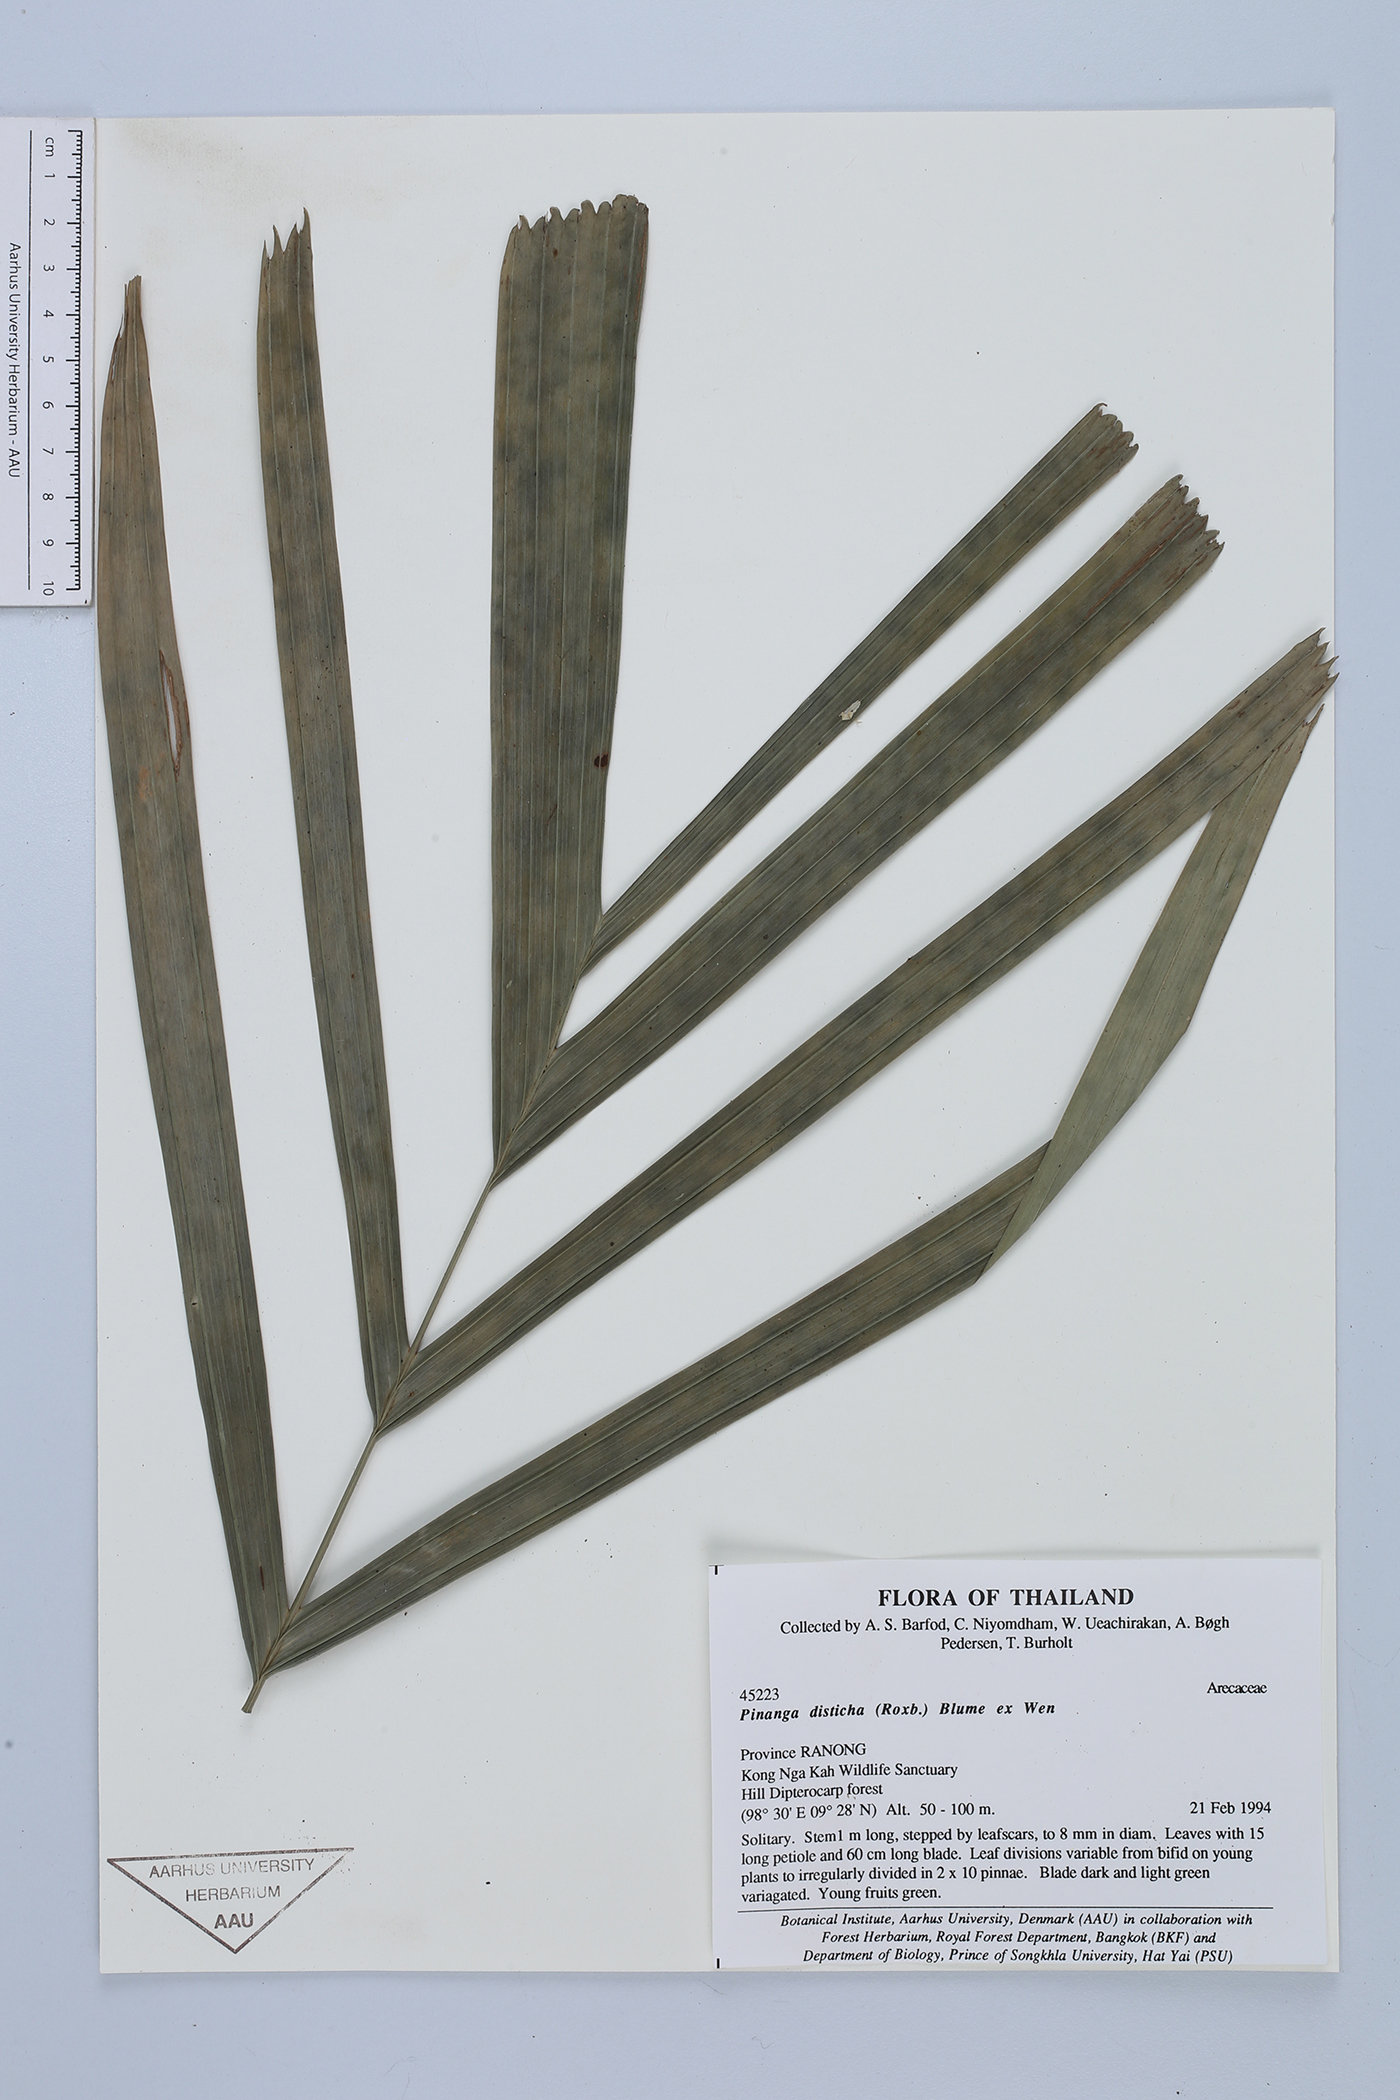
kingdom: Plantae
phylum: Tracheophyta
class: Liliopsida
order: Arecales
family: Arecaceae
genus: Pinanga
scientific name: Pinanga disticha
